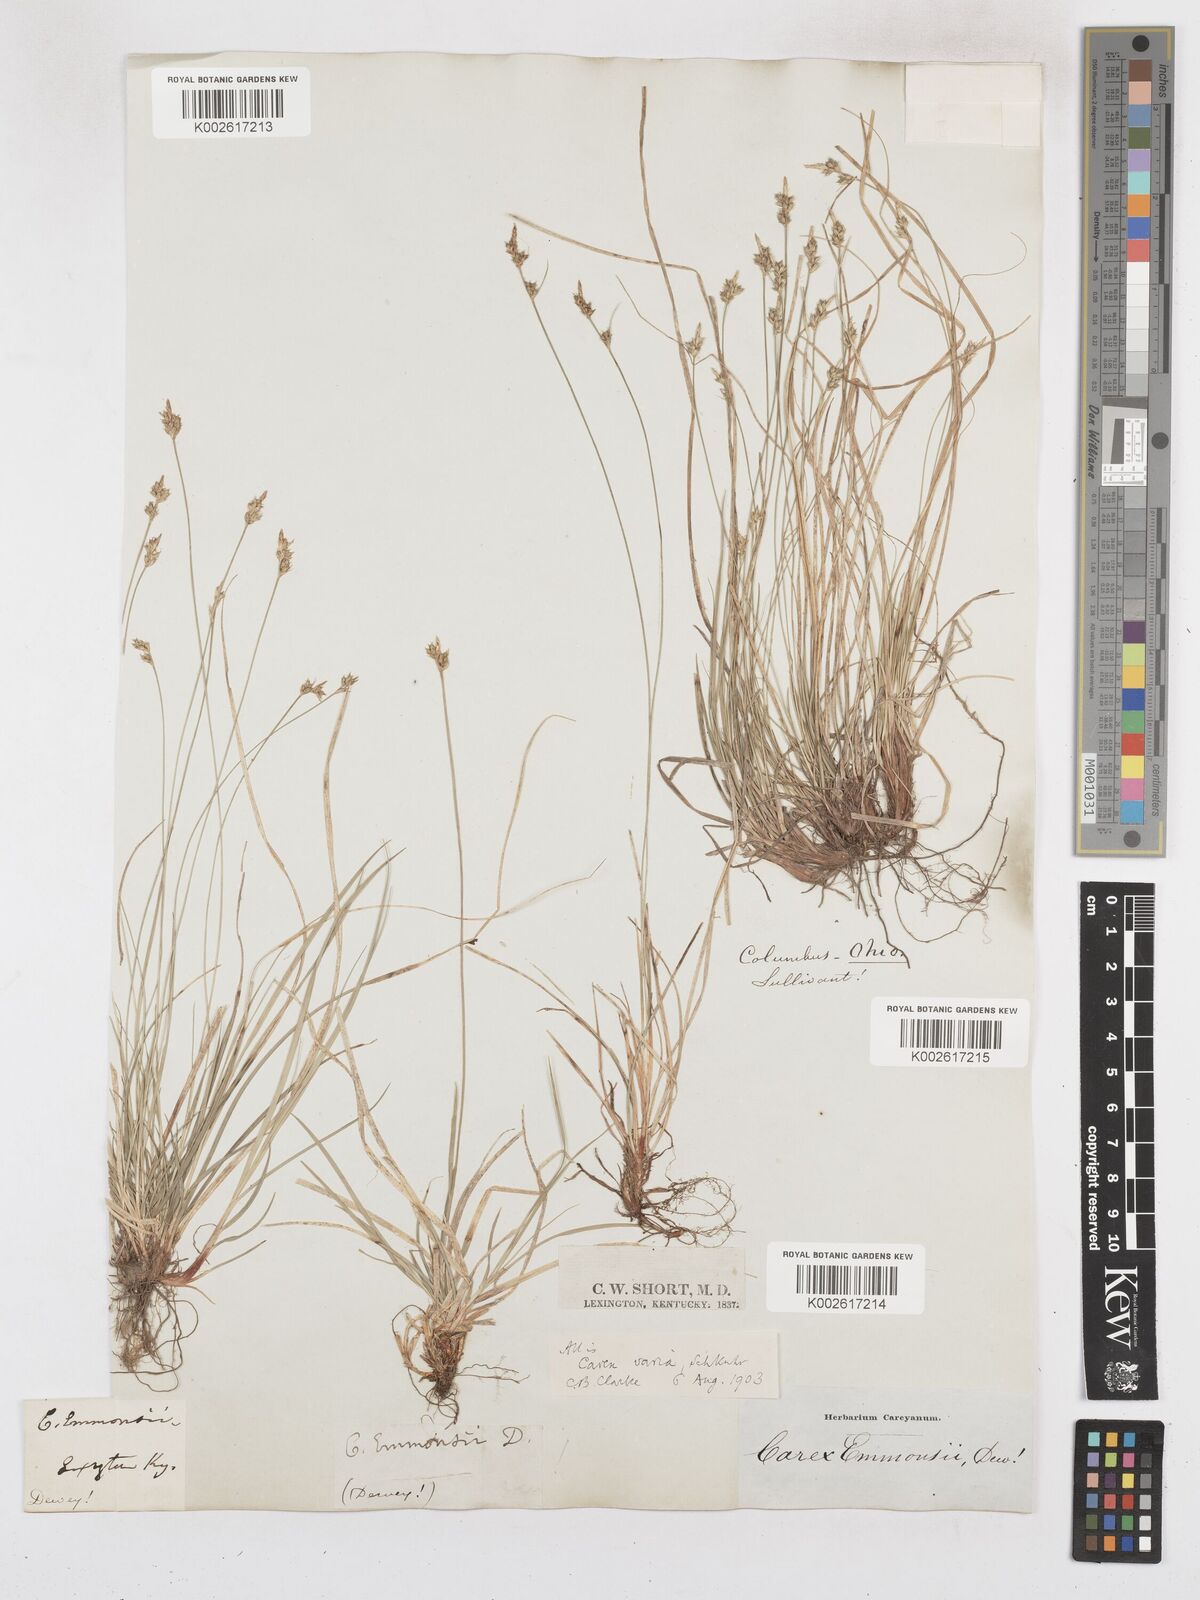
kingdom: Plantae
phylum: Tracheophyta
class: Liliopsida
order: Poales
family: Cyperaceae
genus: Carex
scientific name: Carex albicans
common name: Bellow-beaked sedge
